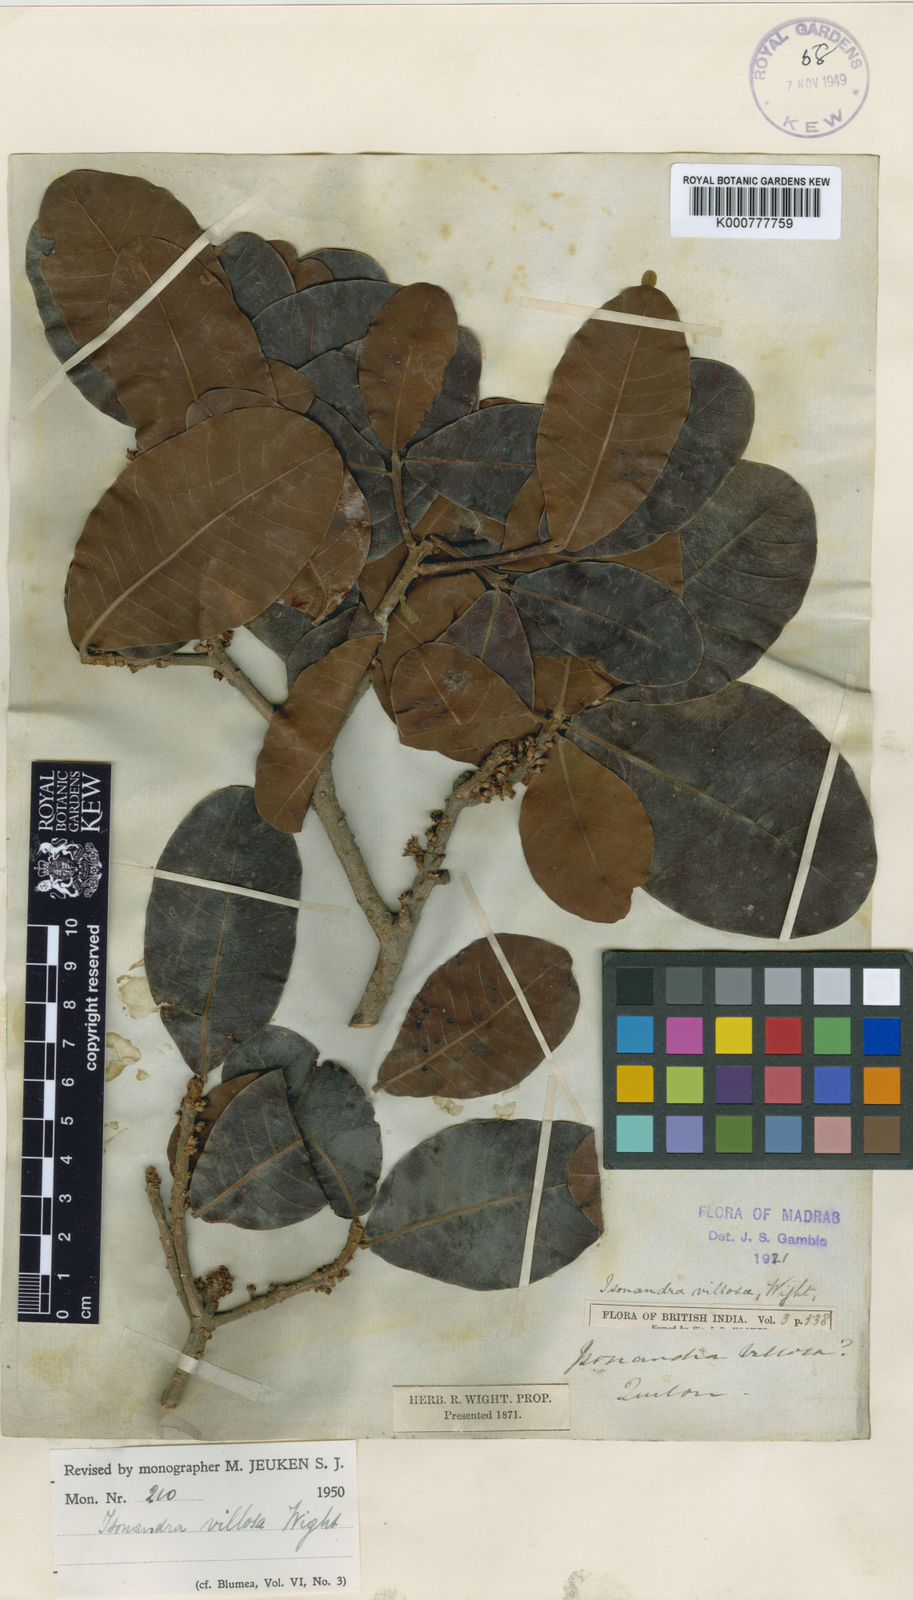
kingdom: Plantae
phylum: Tracheophyta
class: Magnoliopsida
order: Ericales
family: Sapotaceae
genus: Isonandra
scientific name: Isonandra villosa
